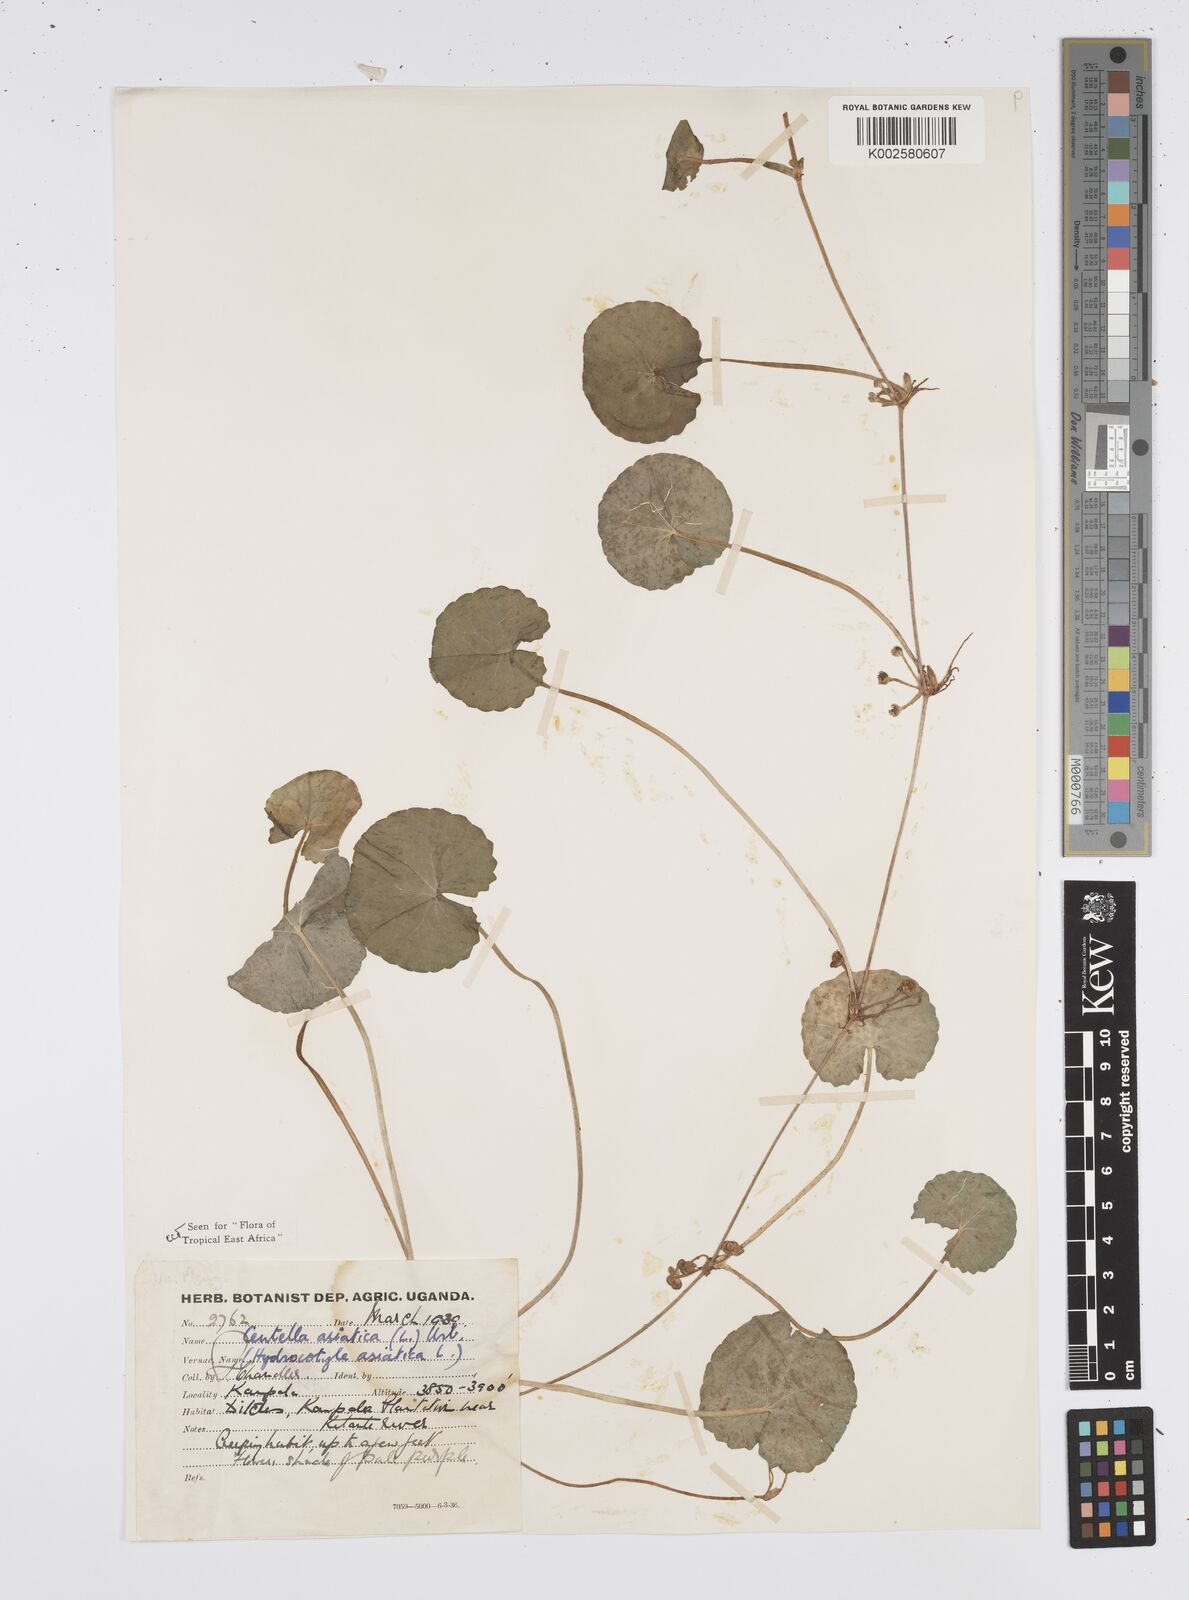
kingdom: Plantae
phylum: Tracheophyta
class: Magnoliopsida
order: Apiales
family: Apiaceae
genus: Centella
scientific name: Centella asiatica
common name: Spadeleaf
